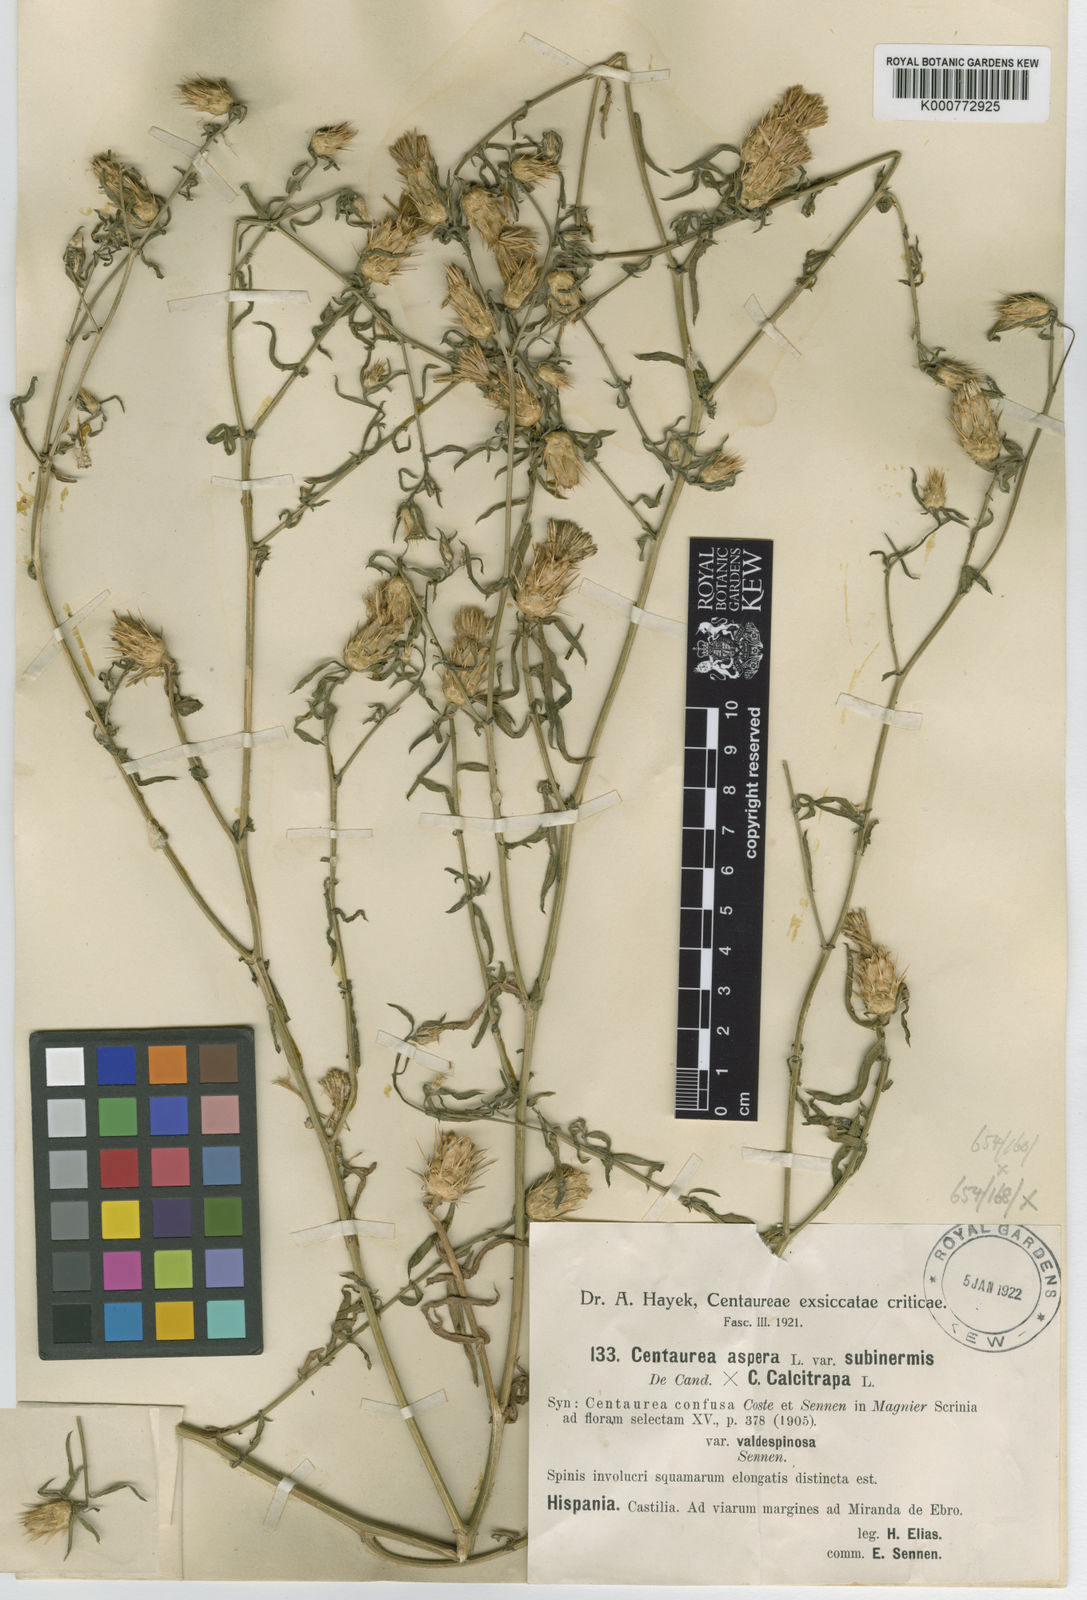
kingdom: Plantae
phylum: Tracheophyta
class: Magnoliopsida
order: Asterales
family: Asteraceae
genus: Centaurea
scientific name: Centaurea calcitrapa
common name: Red star-thistle
